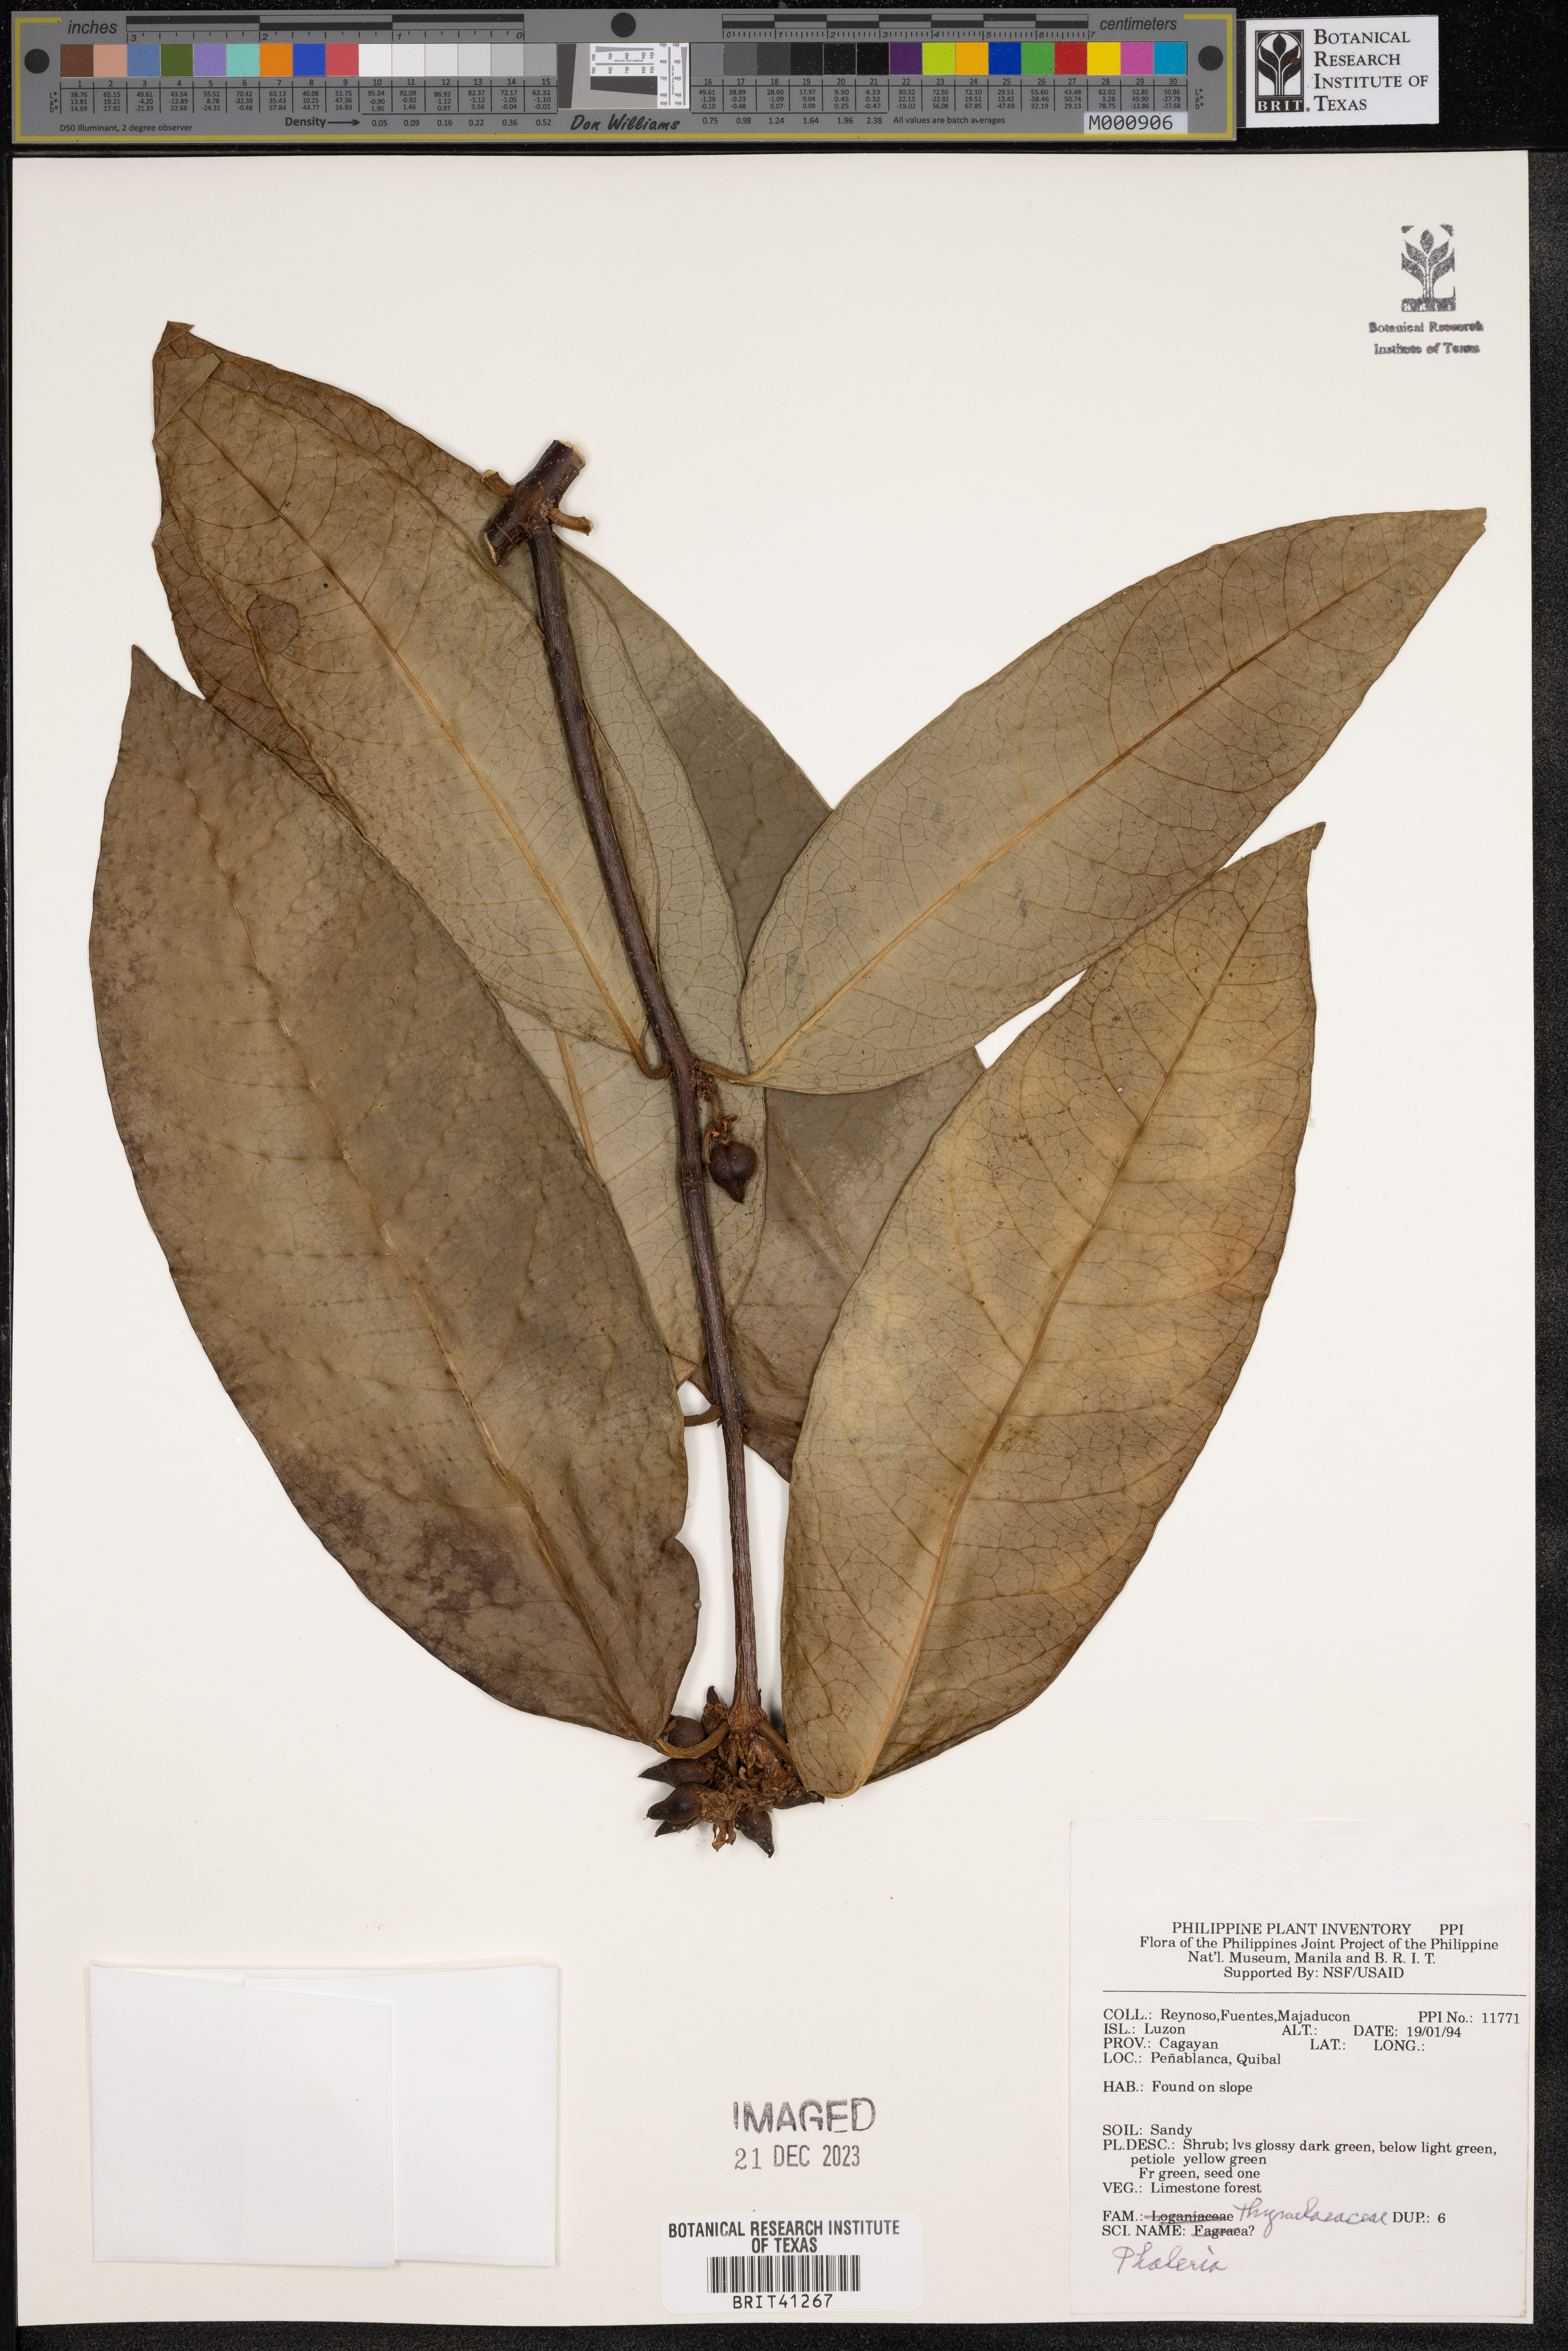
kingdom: Plantae
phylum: Tracheophyta
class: Magnoliopsida
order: Malvales
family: Thymelaeaceae
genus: Phaleria
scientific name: Phaleria
